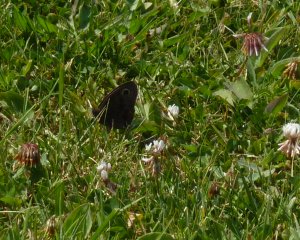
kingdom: Animalia
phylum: Arthropoda
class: Insecta
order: Lepidoptera
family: Nymphalidae
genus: Cercyonis
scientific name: Cercyonis pegala
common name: Common Wood-Nymph
